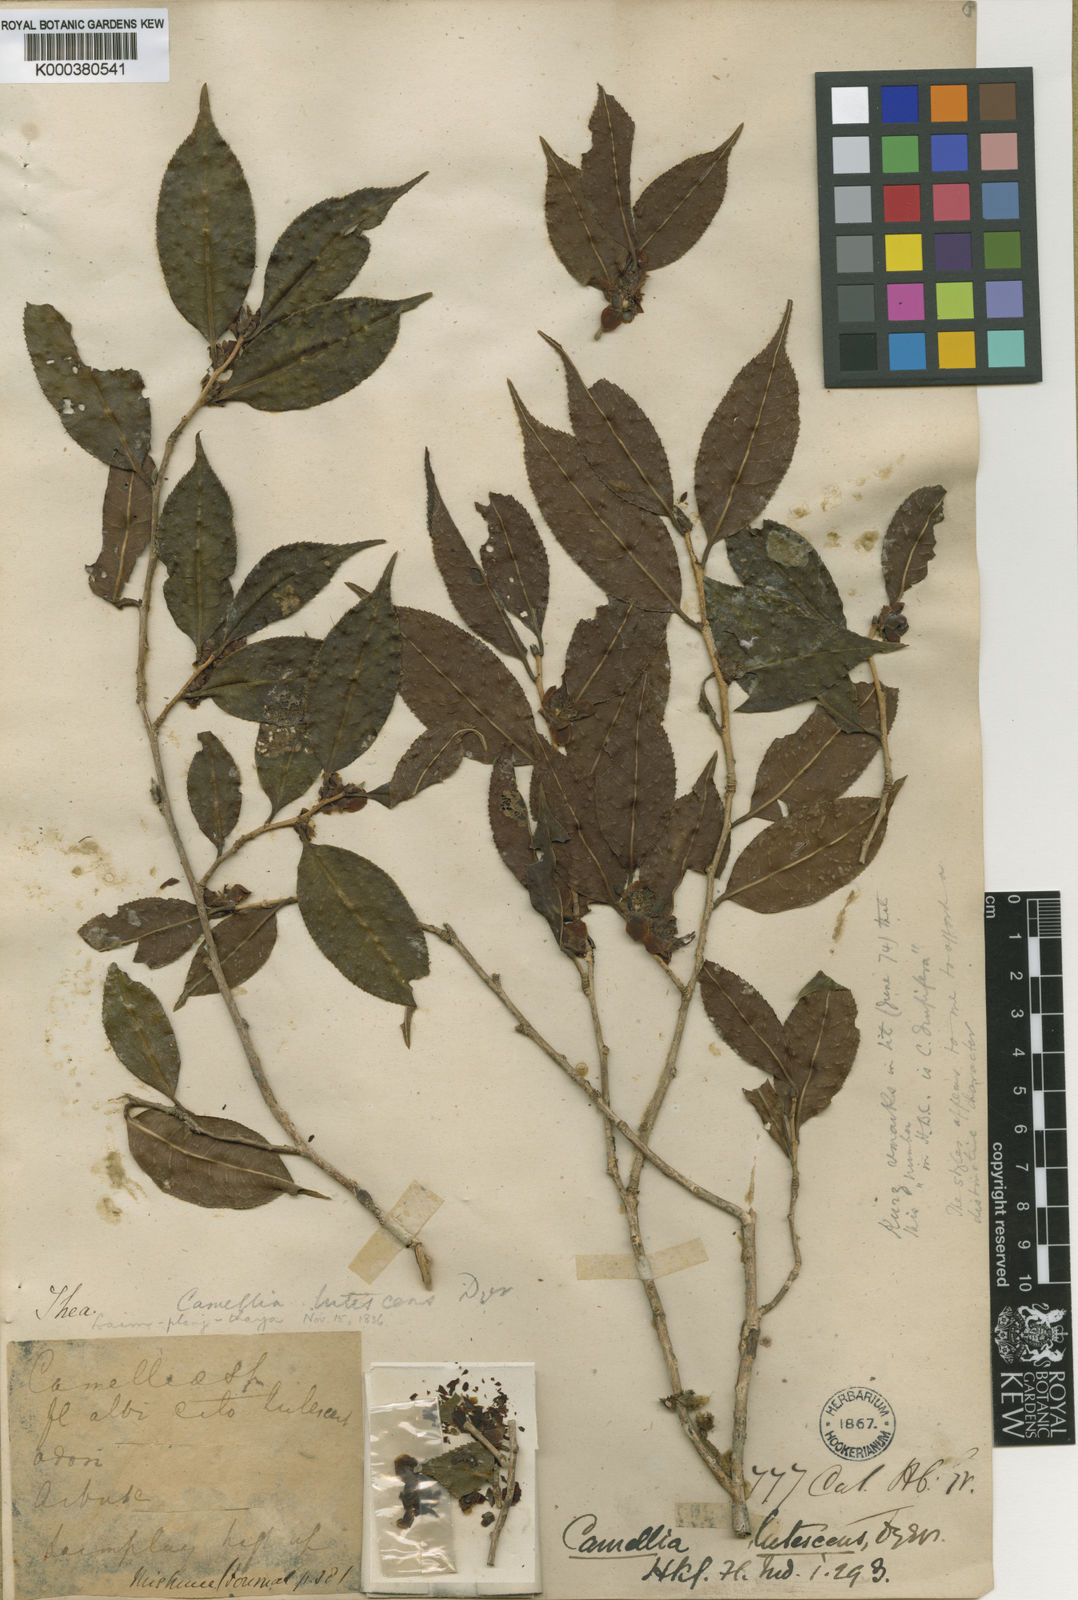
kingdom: Plantae
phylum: Tracheophyta
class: Magnoliopsida
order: Ericales
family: Theaceae
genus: Camellia
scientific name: Camellia kissii
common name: Nepal camellia
